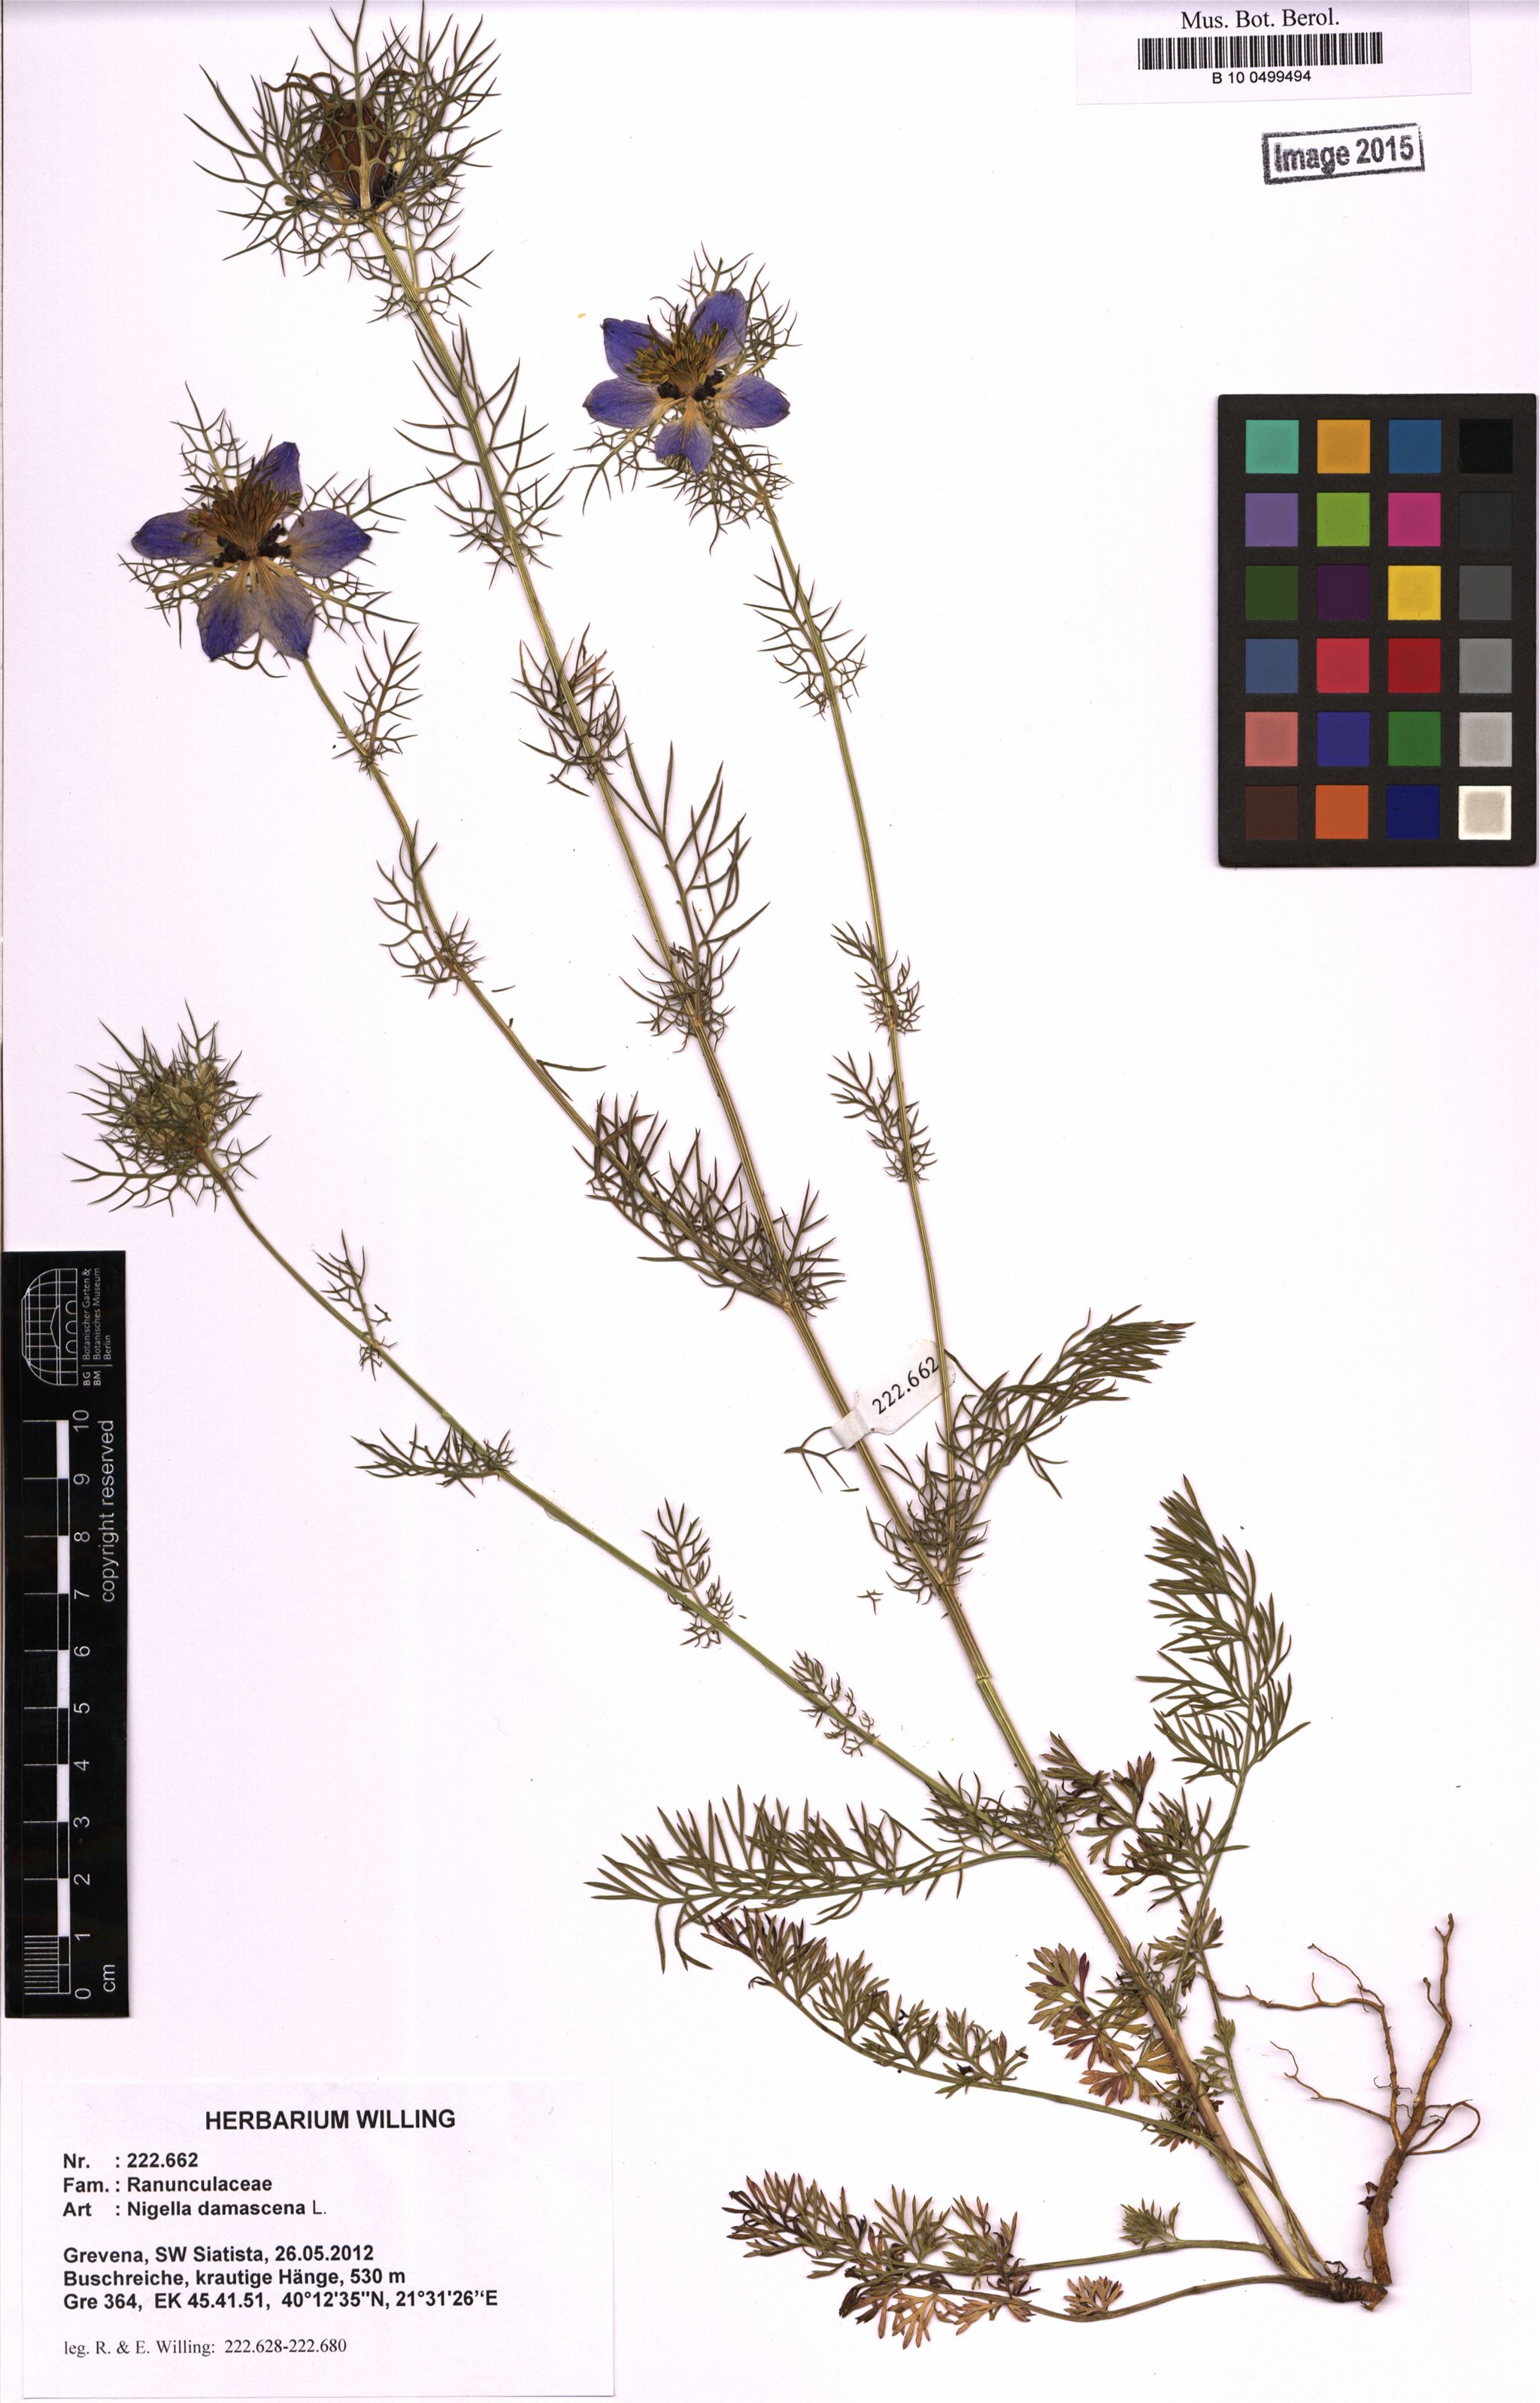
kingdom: Plantae
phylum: Tracheophyta
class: Magnoliopsida
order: Ranunculales
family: Ranunculaceae
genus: Nigella
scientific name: Nigella damascena
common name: Love-in-a-mist
